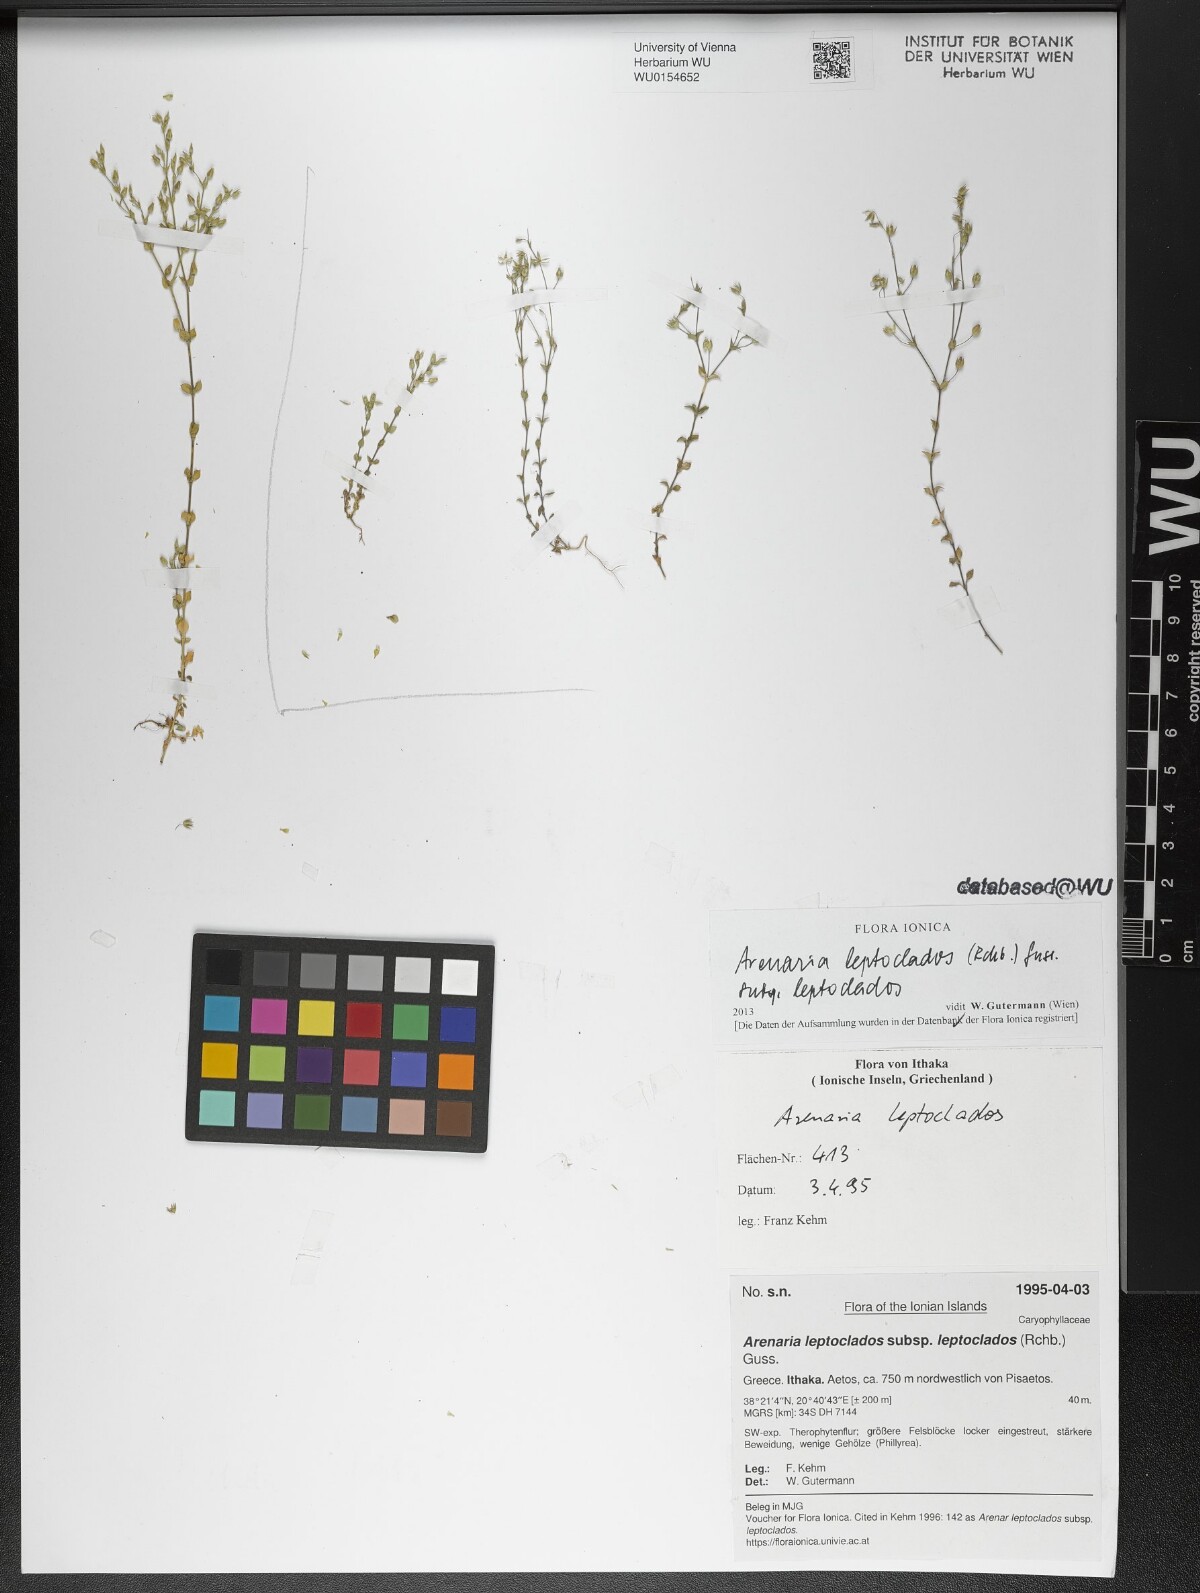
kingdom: Plantae
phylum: Tracheophyta
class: Magnoliopsida
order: Caryophyllales
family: Caryophyllaceae
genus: Arenaria
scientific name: Arenaria leptoclados
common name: Thyme-leaved sandwort
